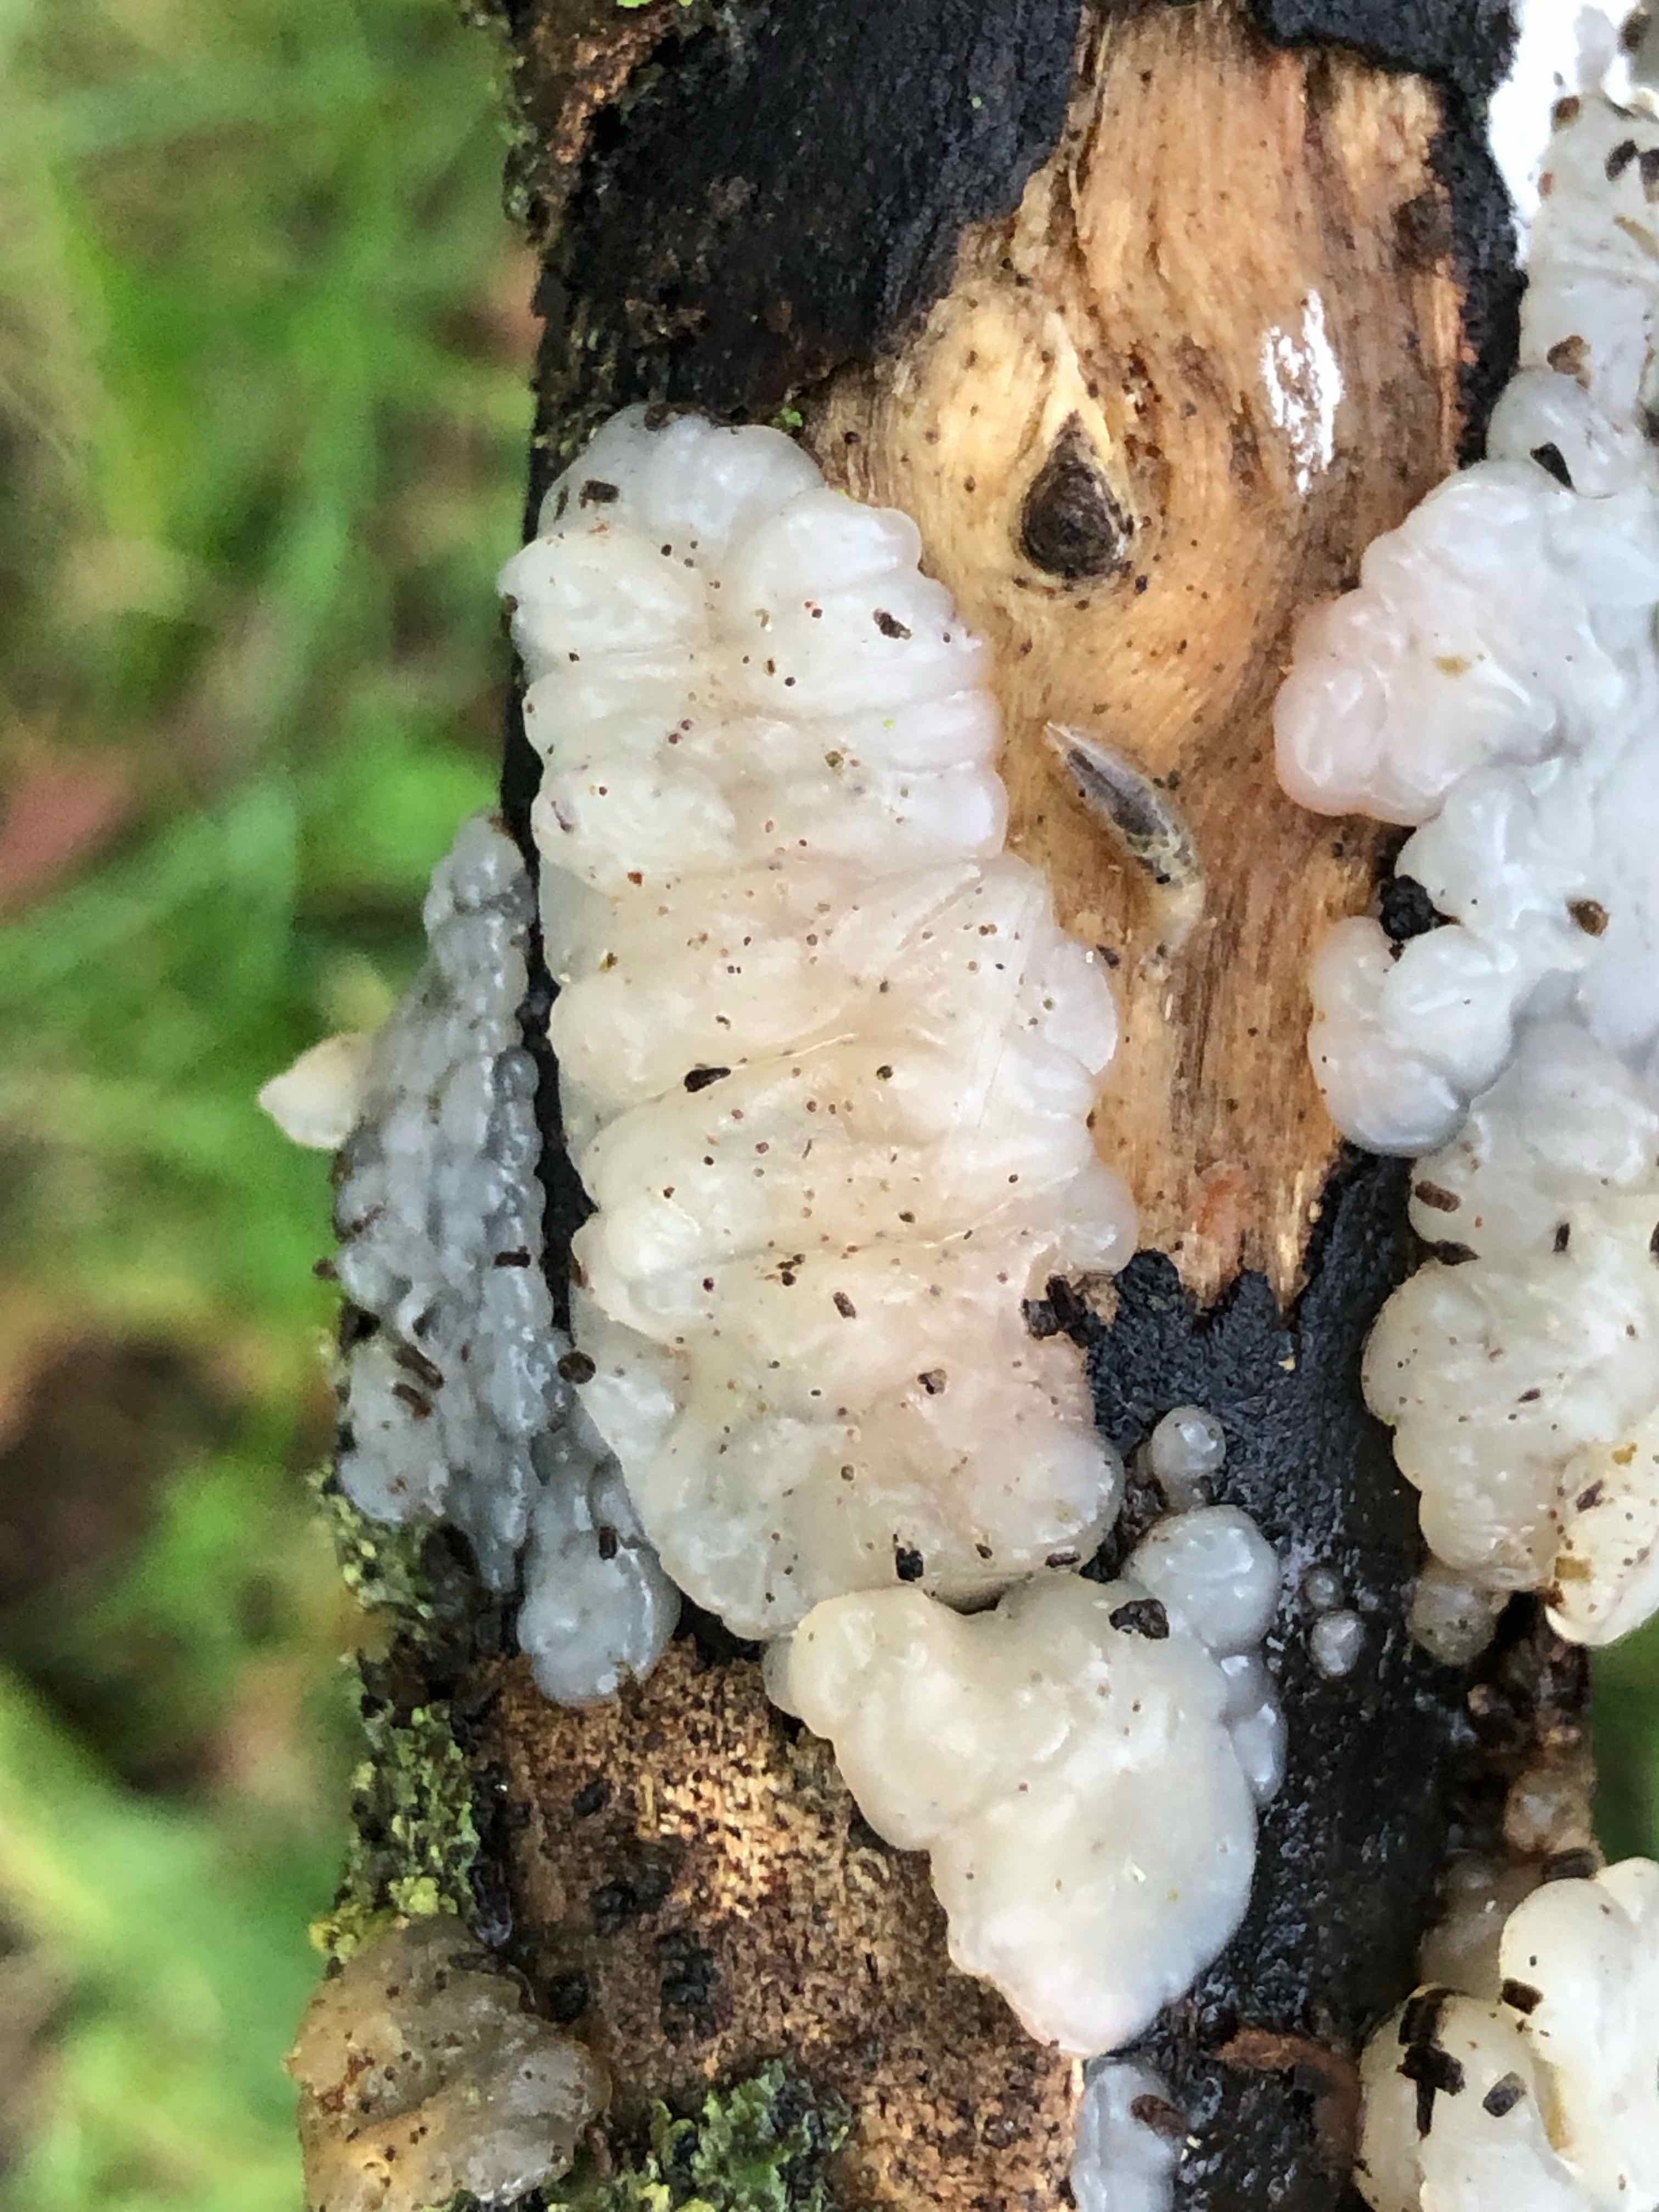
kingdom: Fungi
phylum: Basidiomycota
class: Agaricomycetes
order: Auriculariales
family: Auriculariaceae
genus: Exidia
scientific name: Exidia thuretiana
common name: hvidlig bævretop
